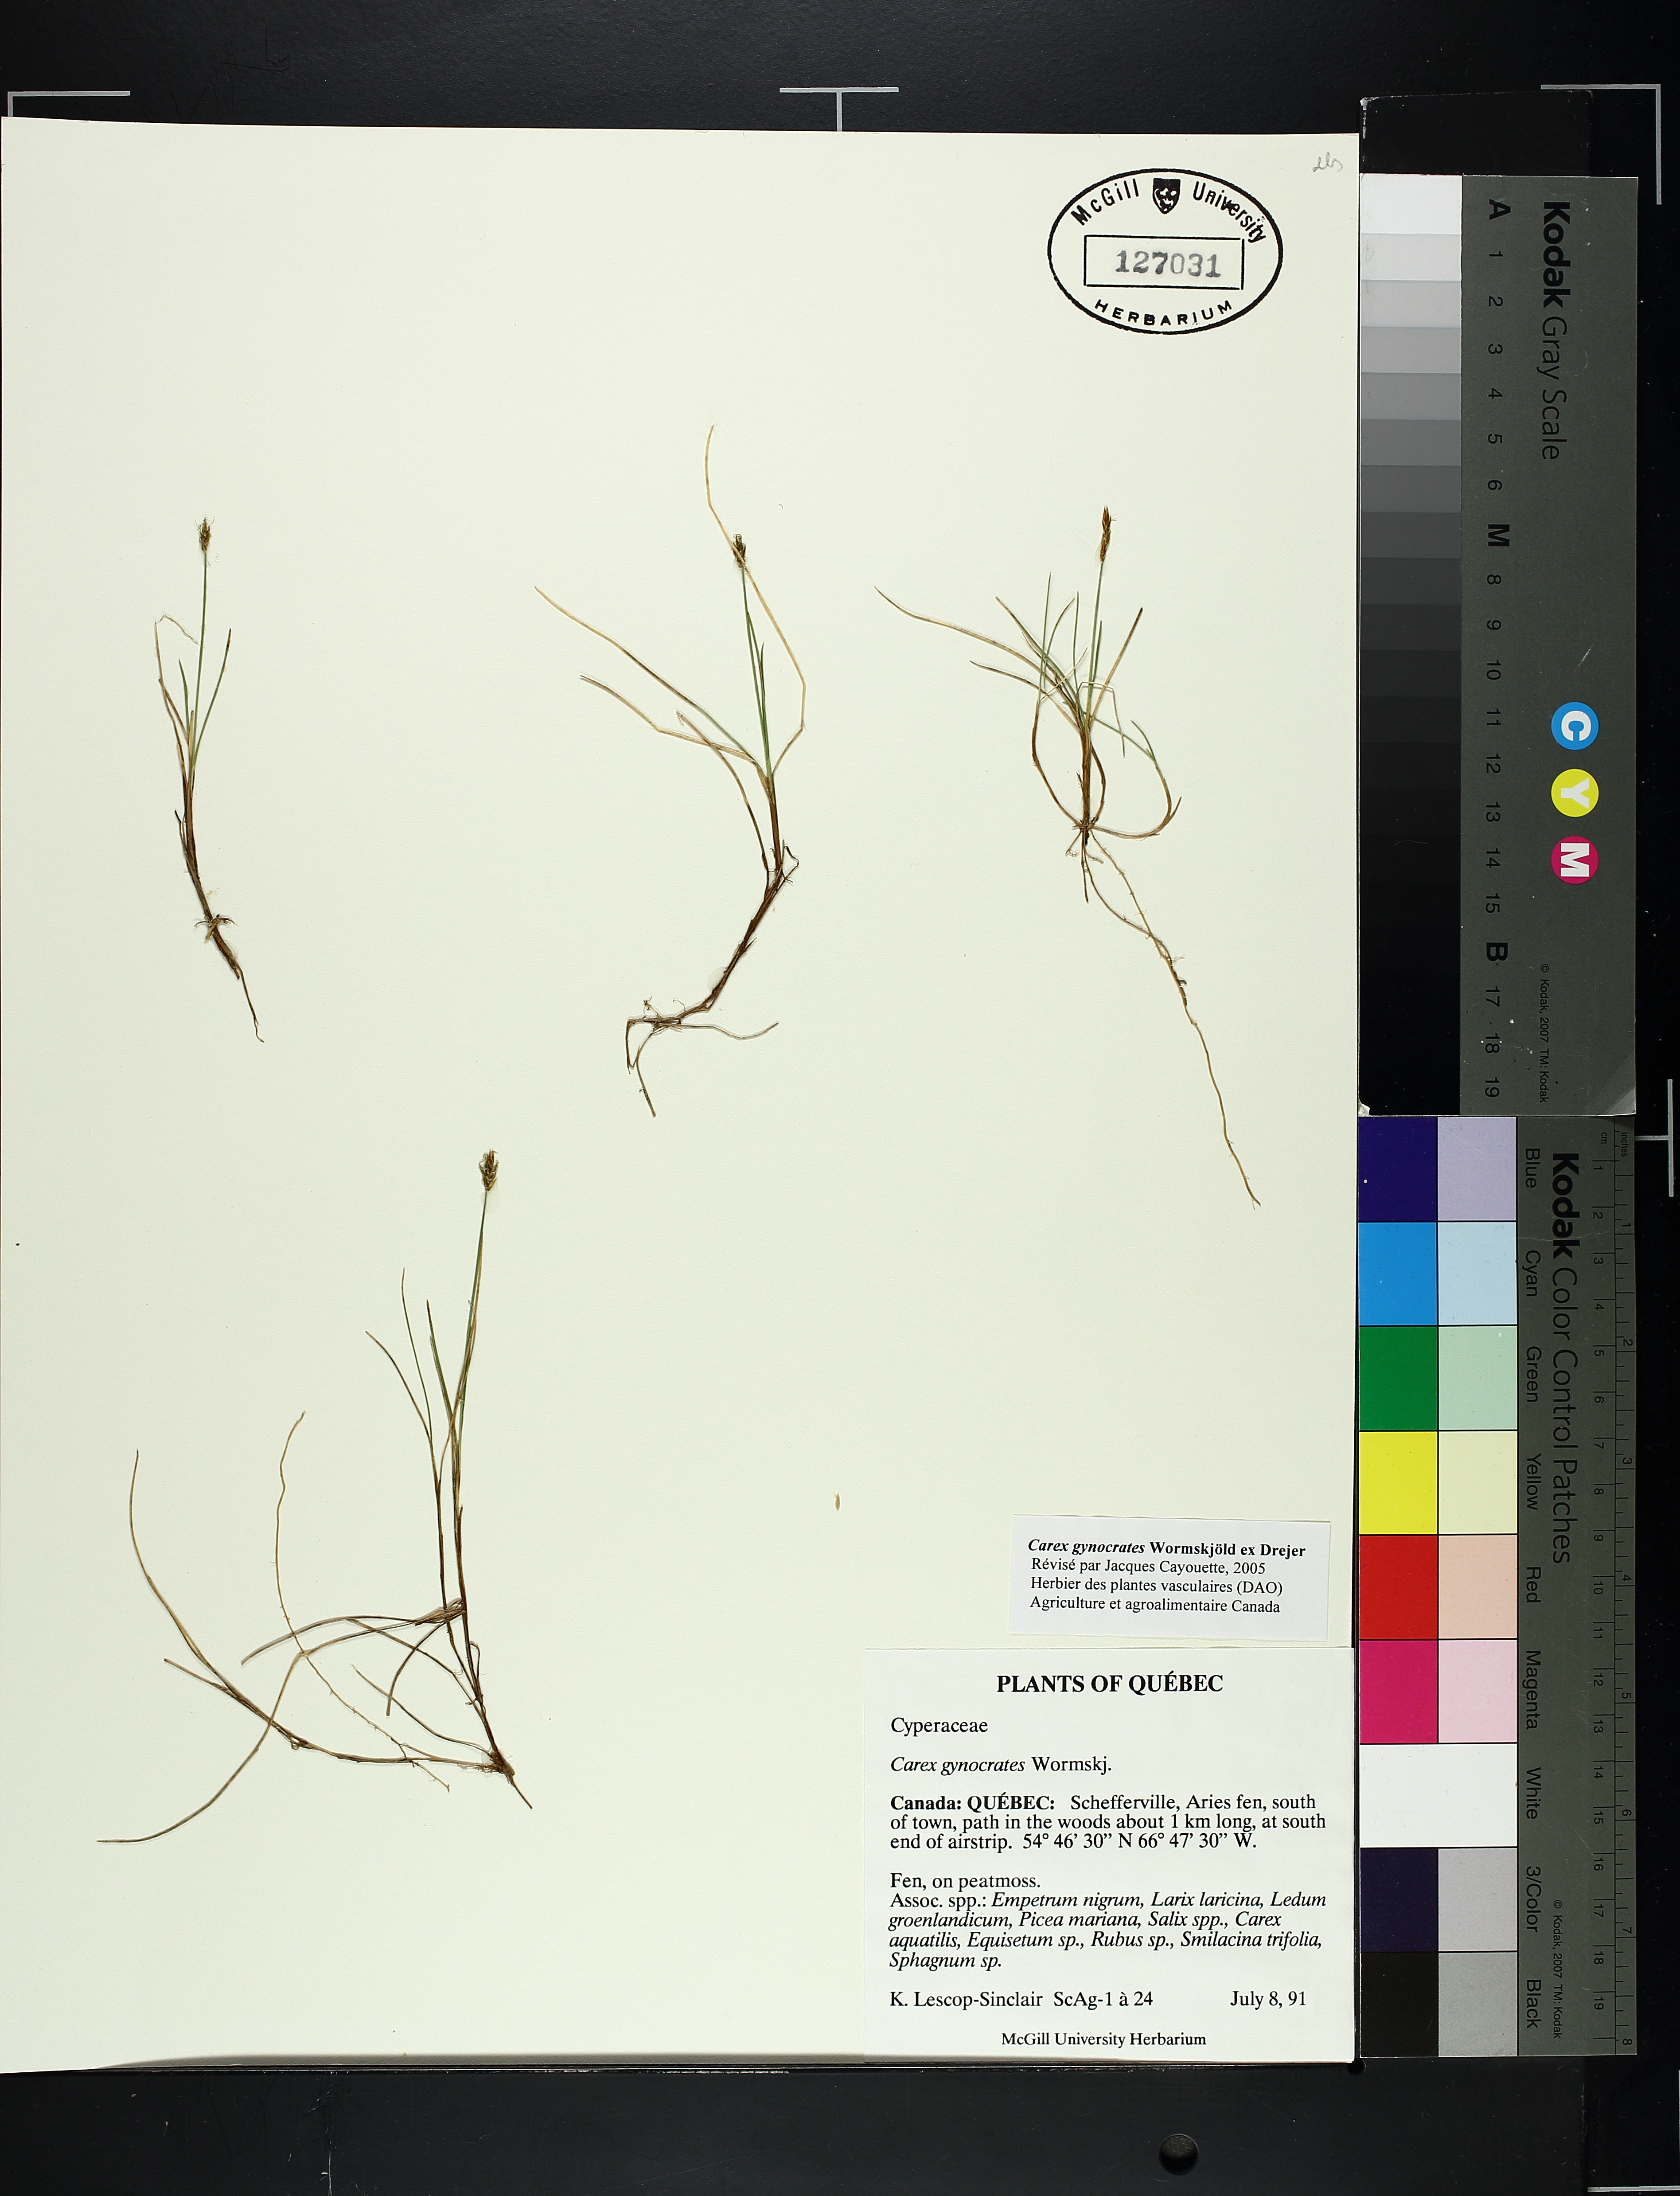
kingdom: Plantae
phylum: Tracheophyta
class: Liliopsida
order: Poales
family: Cyperaceae
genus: Carex
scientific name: Carex gynocrates
